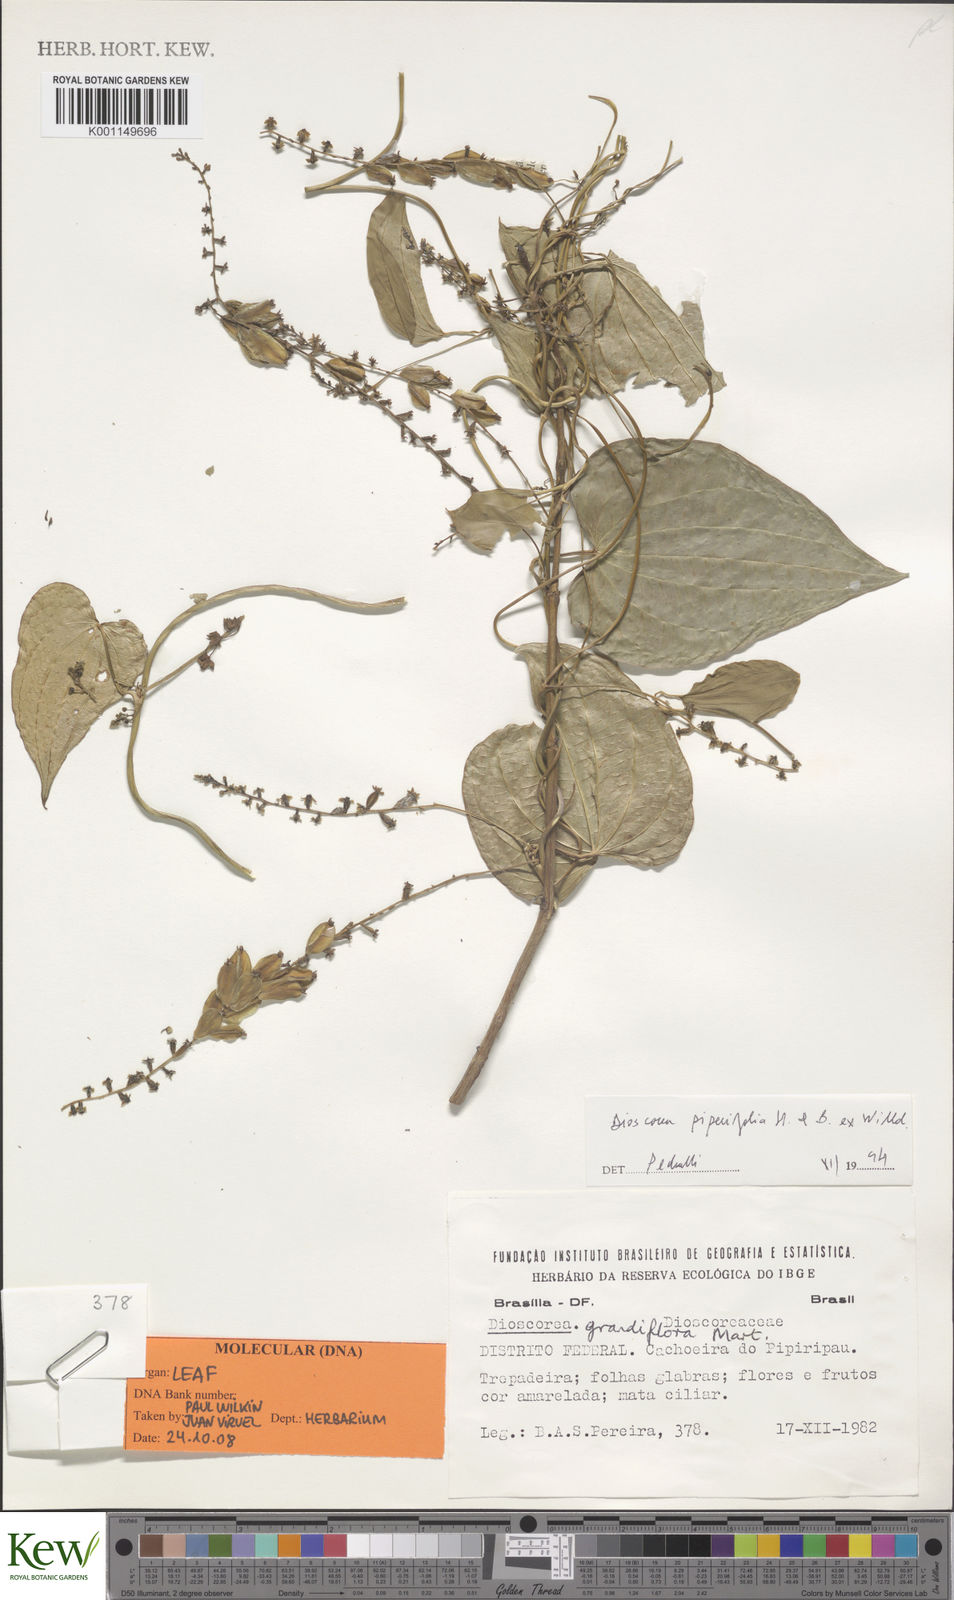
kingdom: Plantae
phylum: Tracheophyta
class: Liliopsida
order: Dioscoreales
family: Dioscoreaceae
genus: Dioscorea
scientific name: Dioscorea grandiflora
